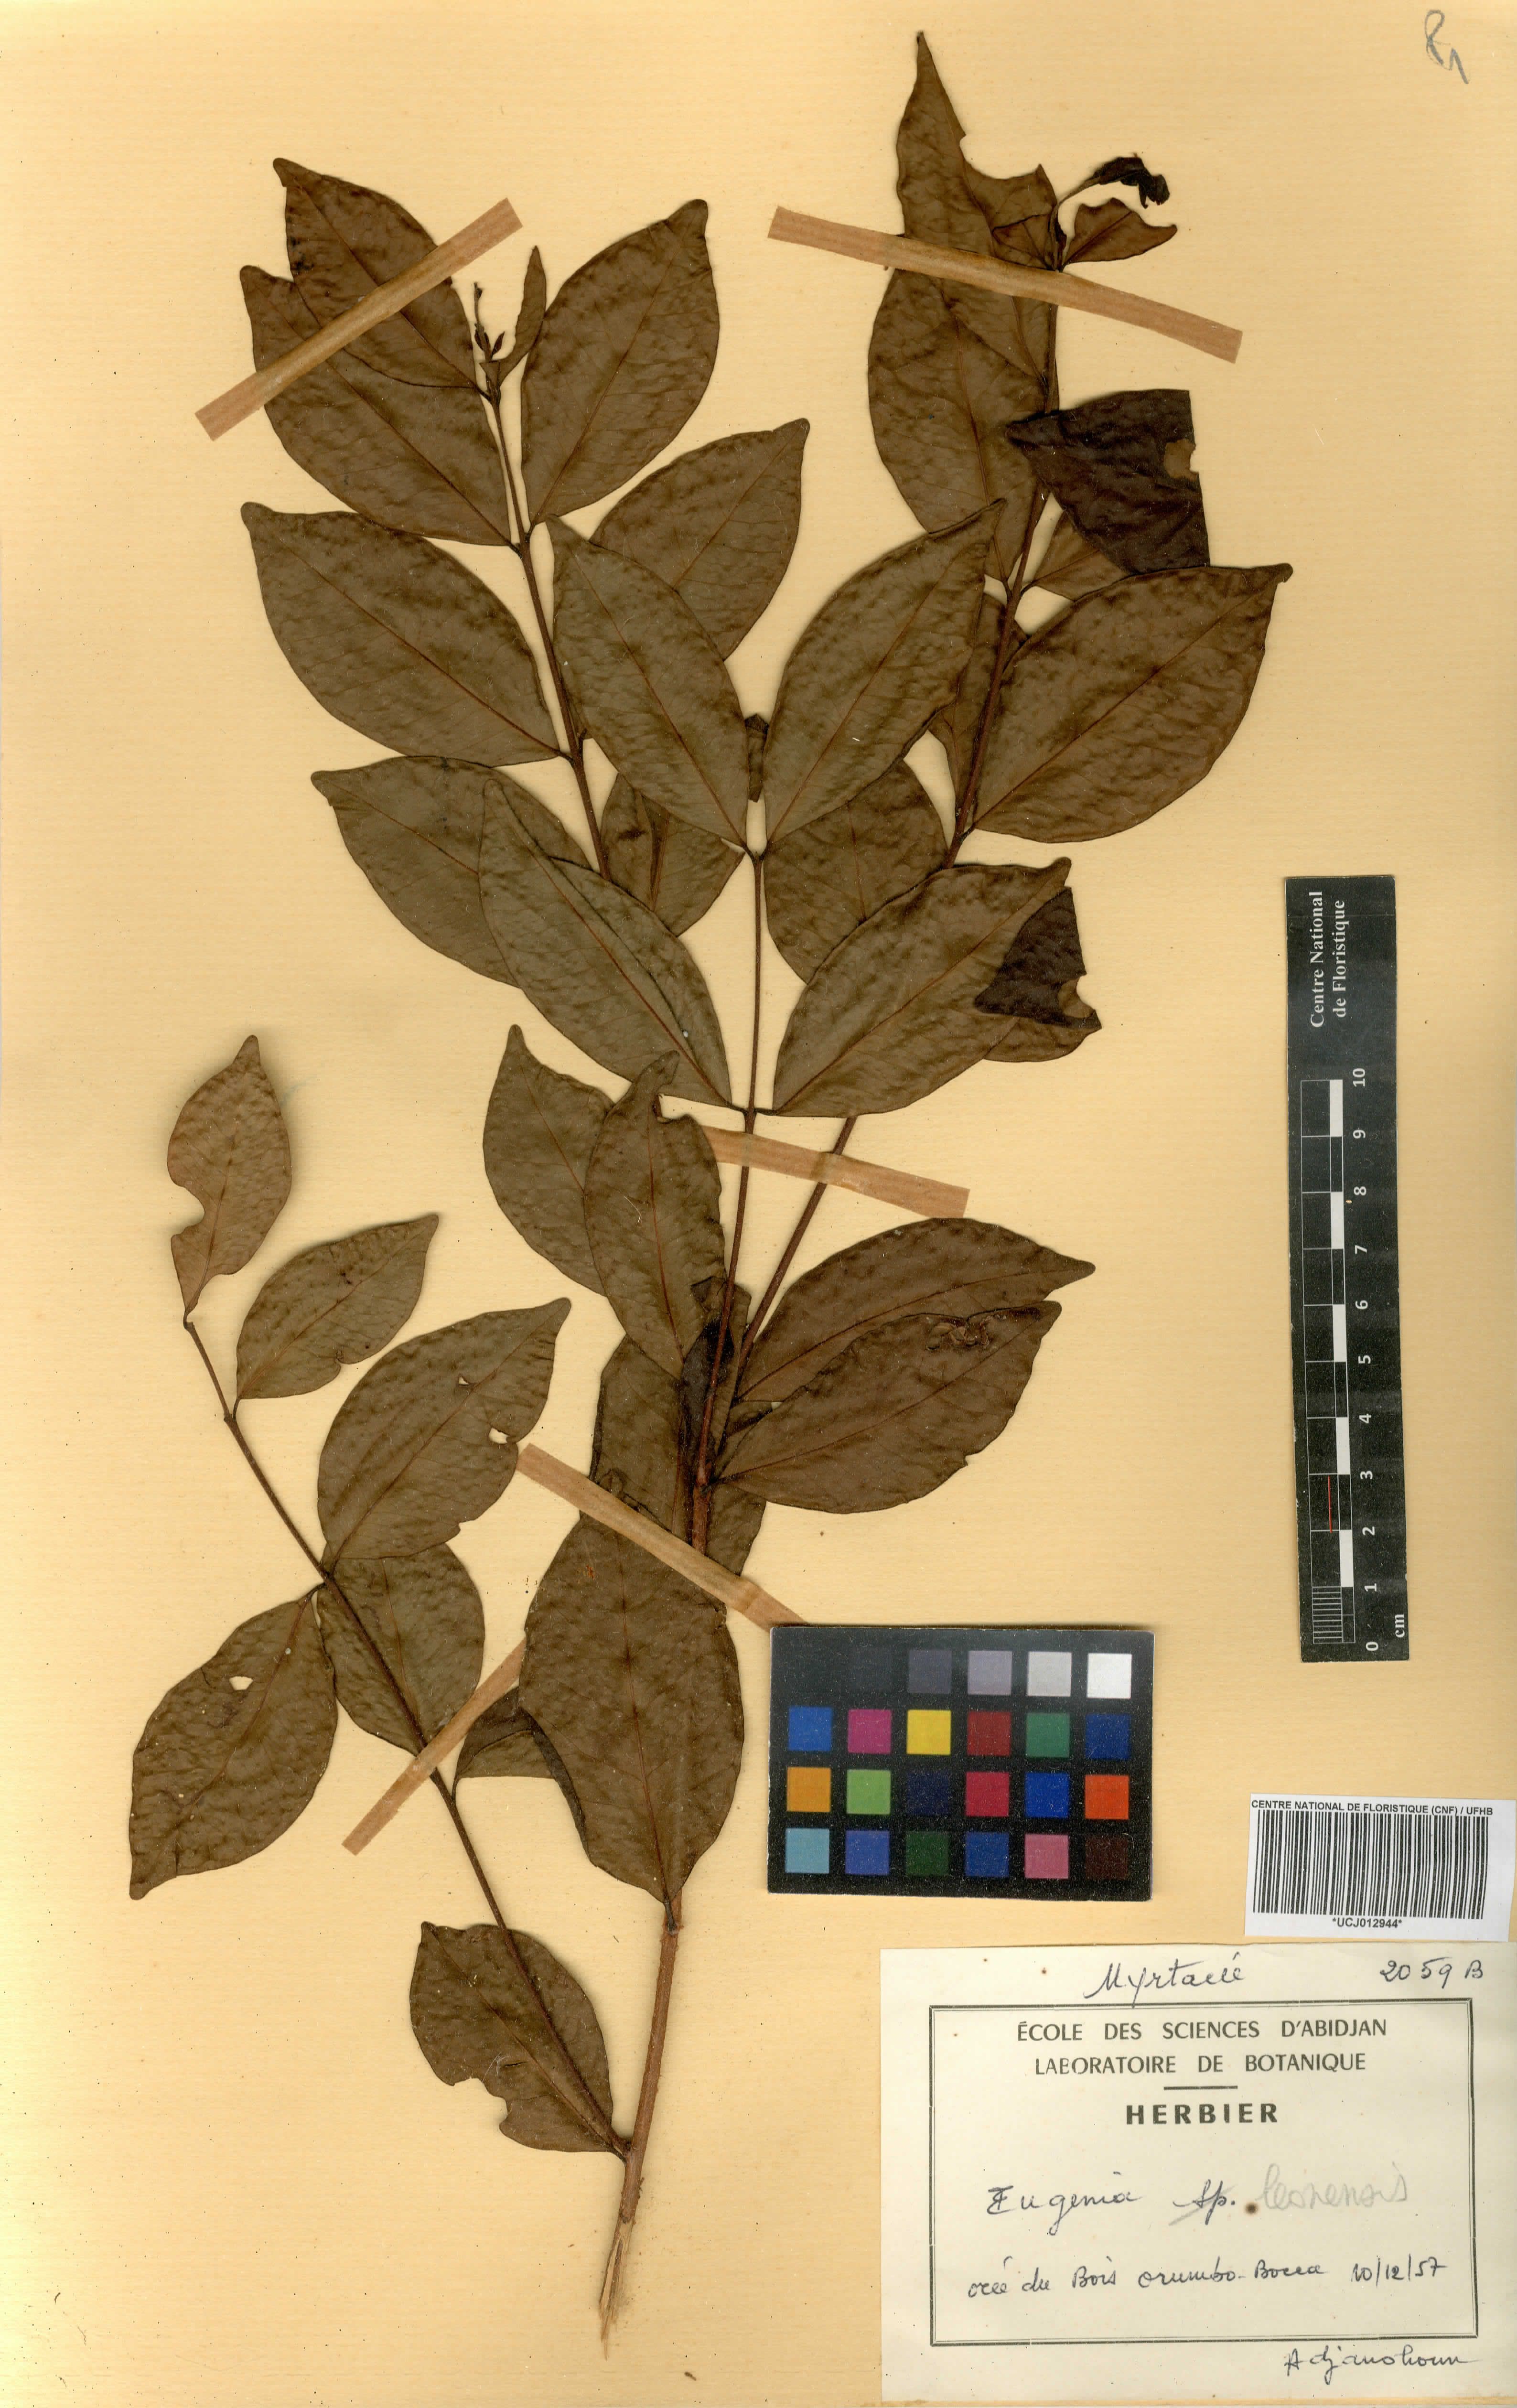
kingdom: Plantae
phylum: Tracheophyta
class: Magnoliopsida
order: Myrtales
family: Myrtaceae
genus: Eugenia
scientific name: Eugenia leonensis
